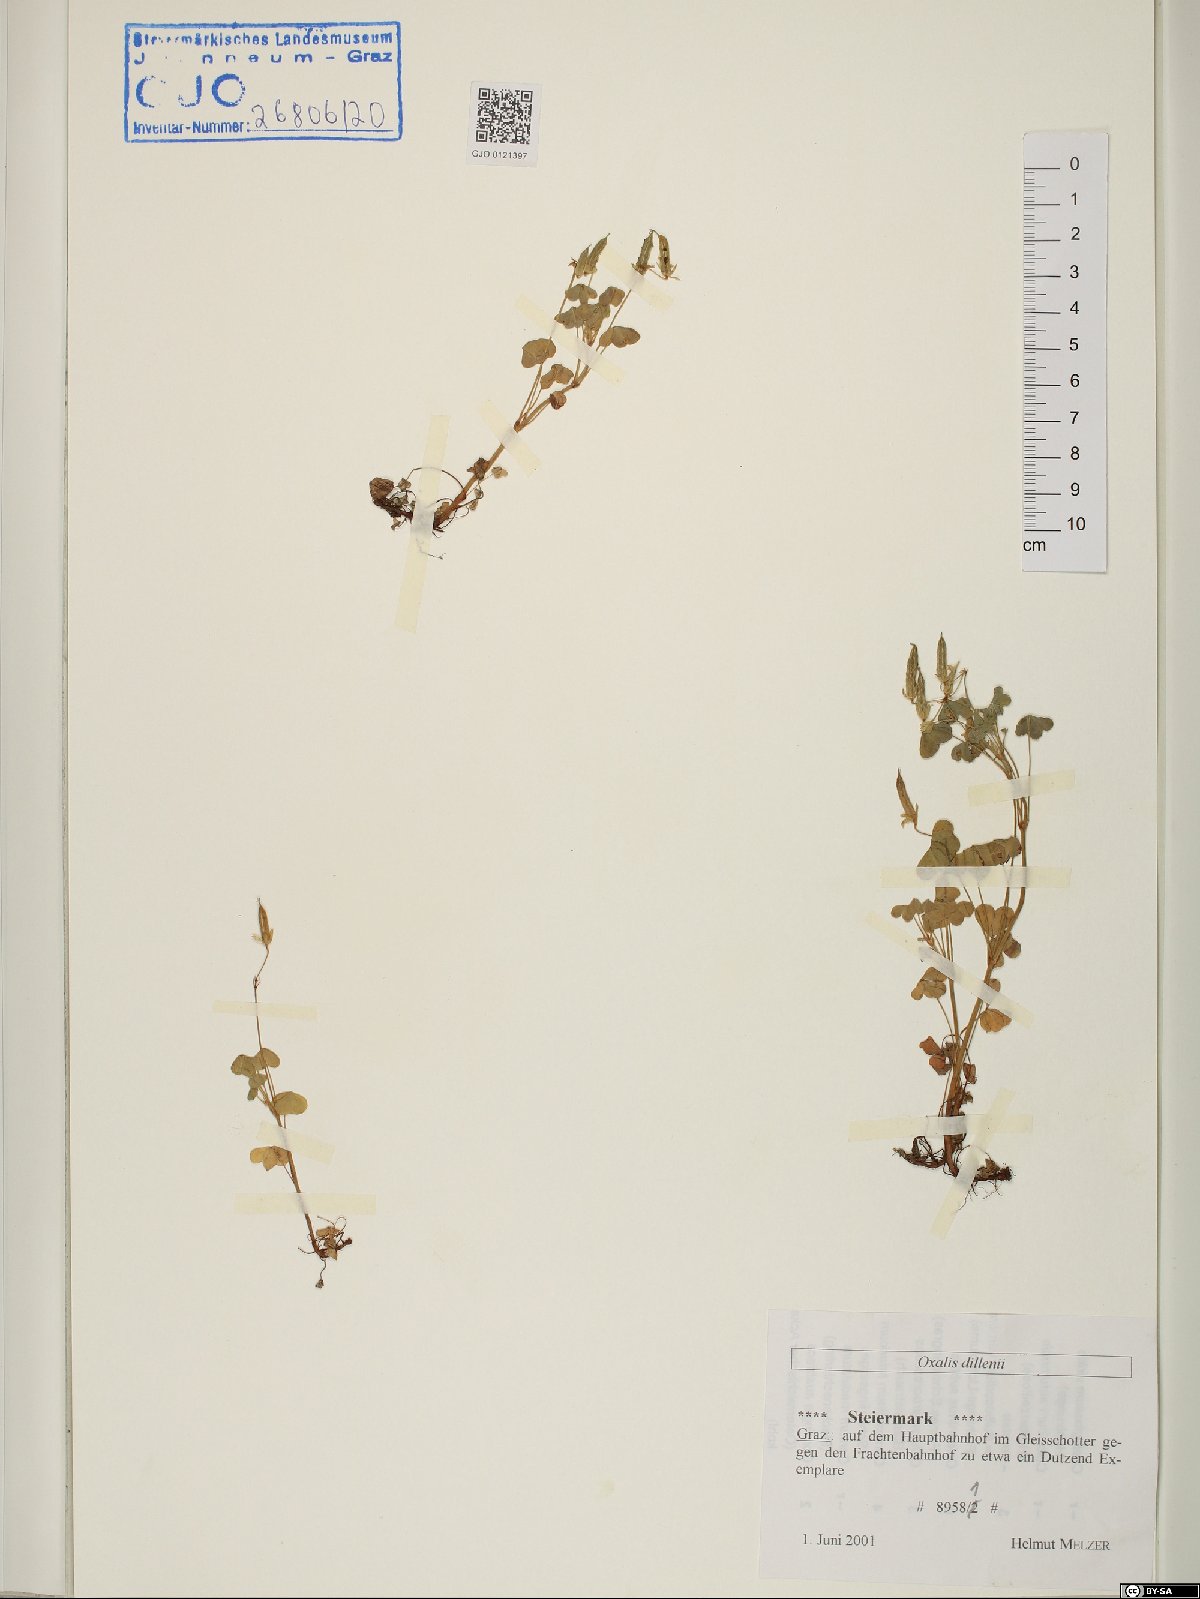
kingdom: Plantae
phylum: Tracheophyta
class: Magnoliopsida
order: Oxalidales
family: Oxalidaceae
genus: Oxalis
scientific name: Oxalis dillenii
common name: Sussex yellow-sorrel
